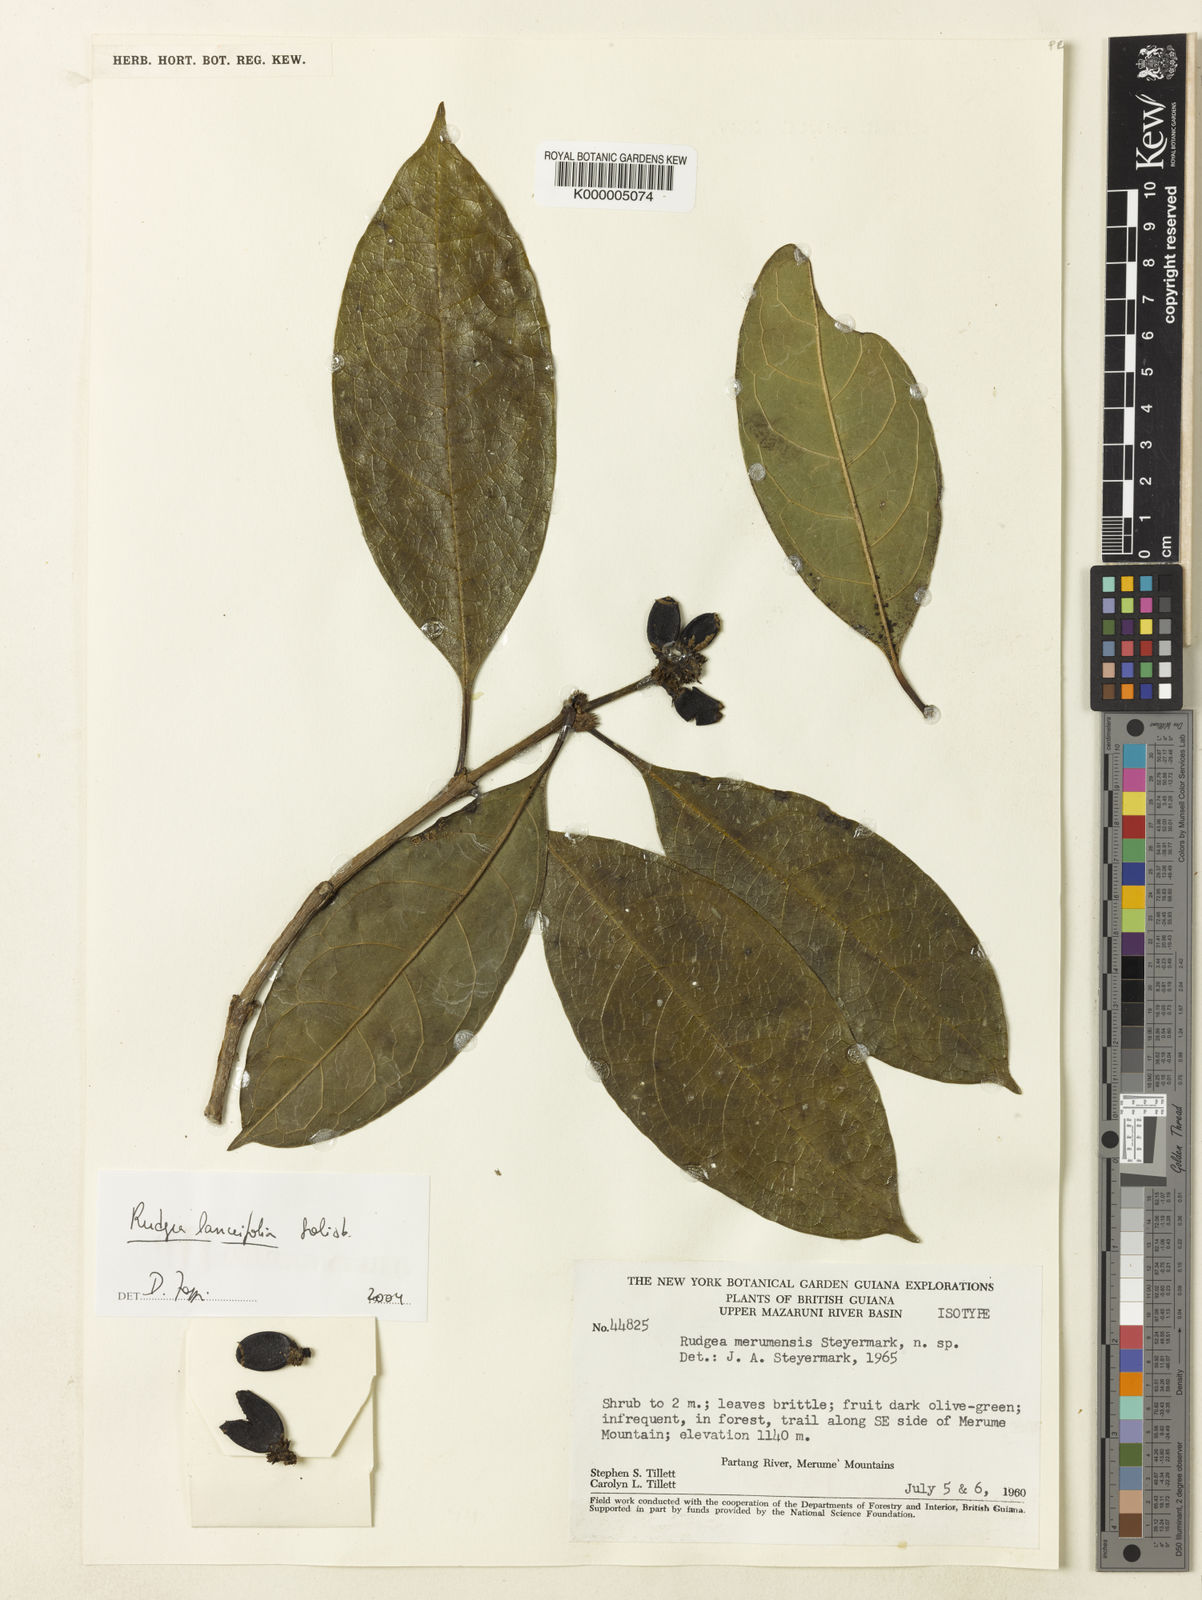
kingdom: Plantae
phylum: Tracheophyta
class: Magnoliopsida
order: Gentianales
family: Rubiaceae
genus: Rudgea
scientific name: Rudgea lanceifolia
